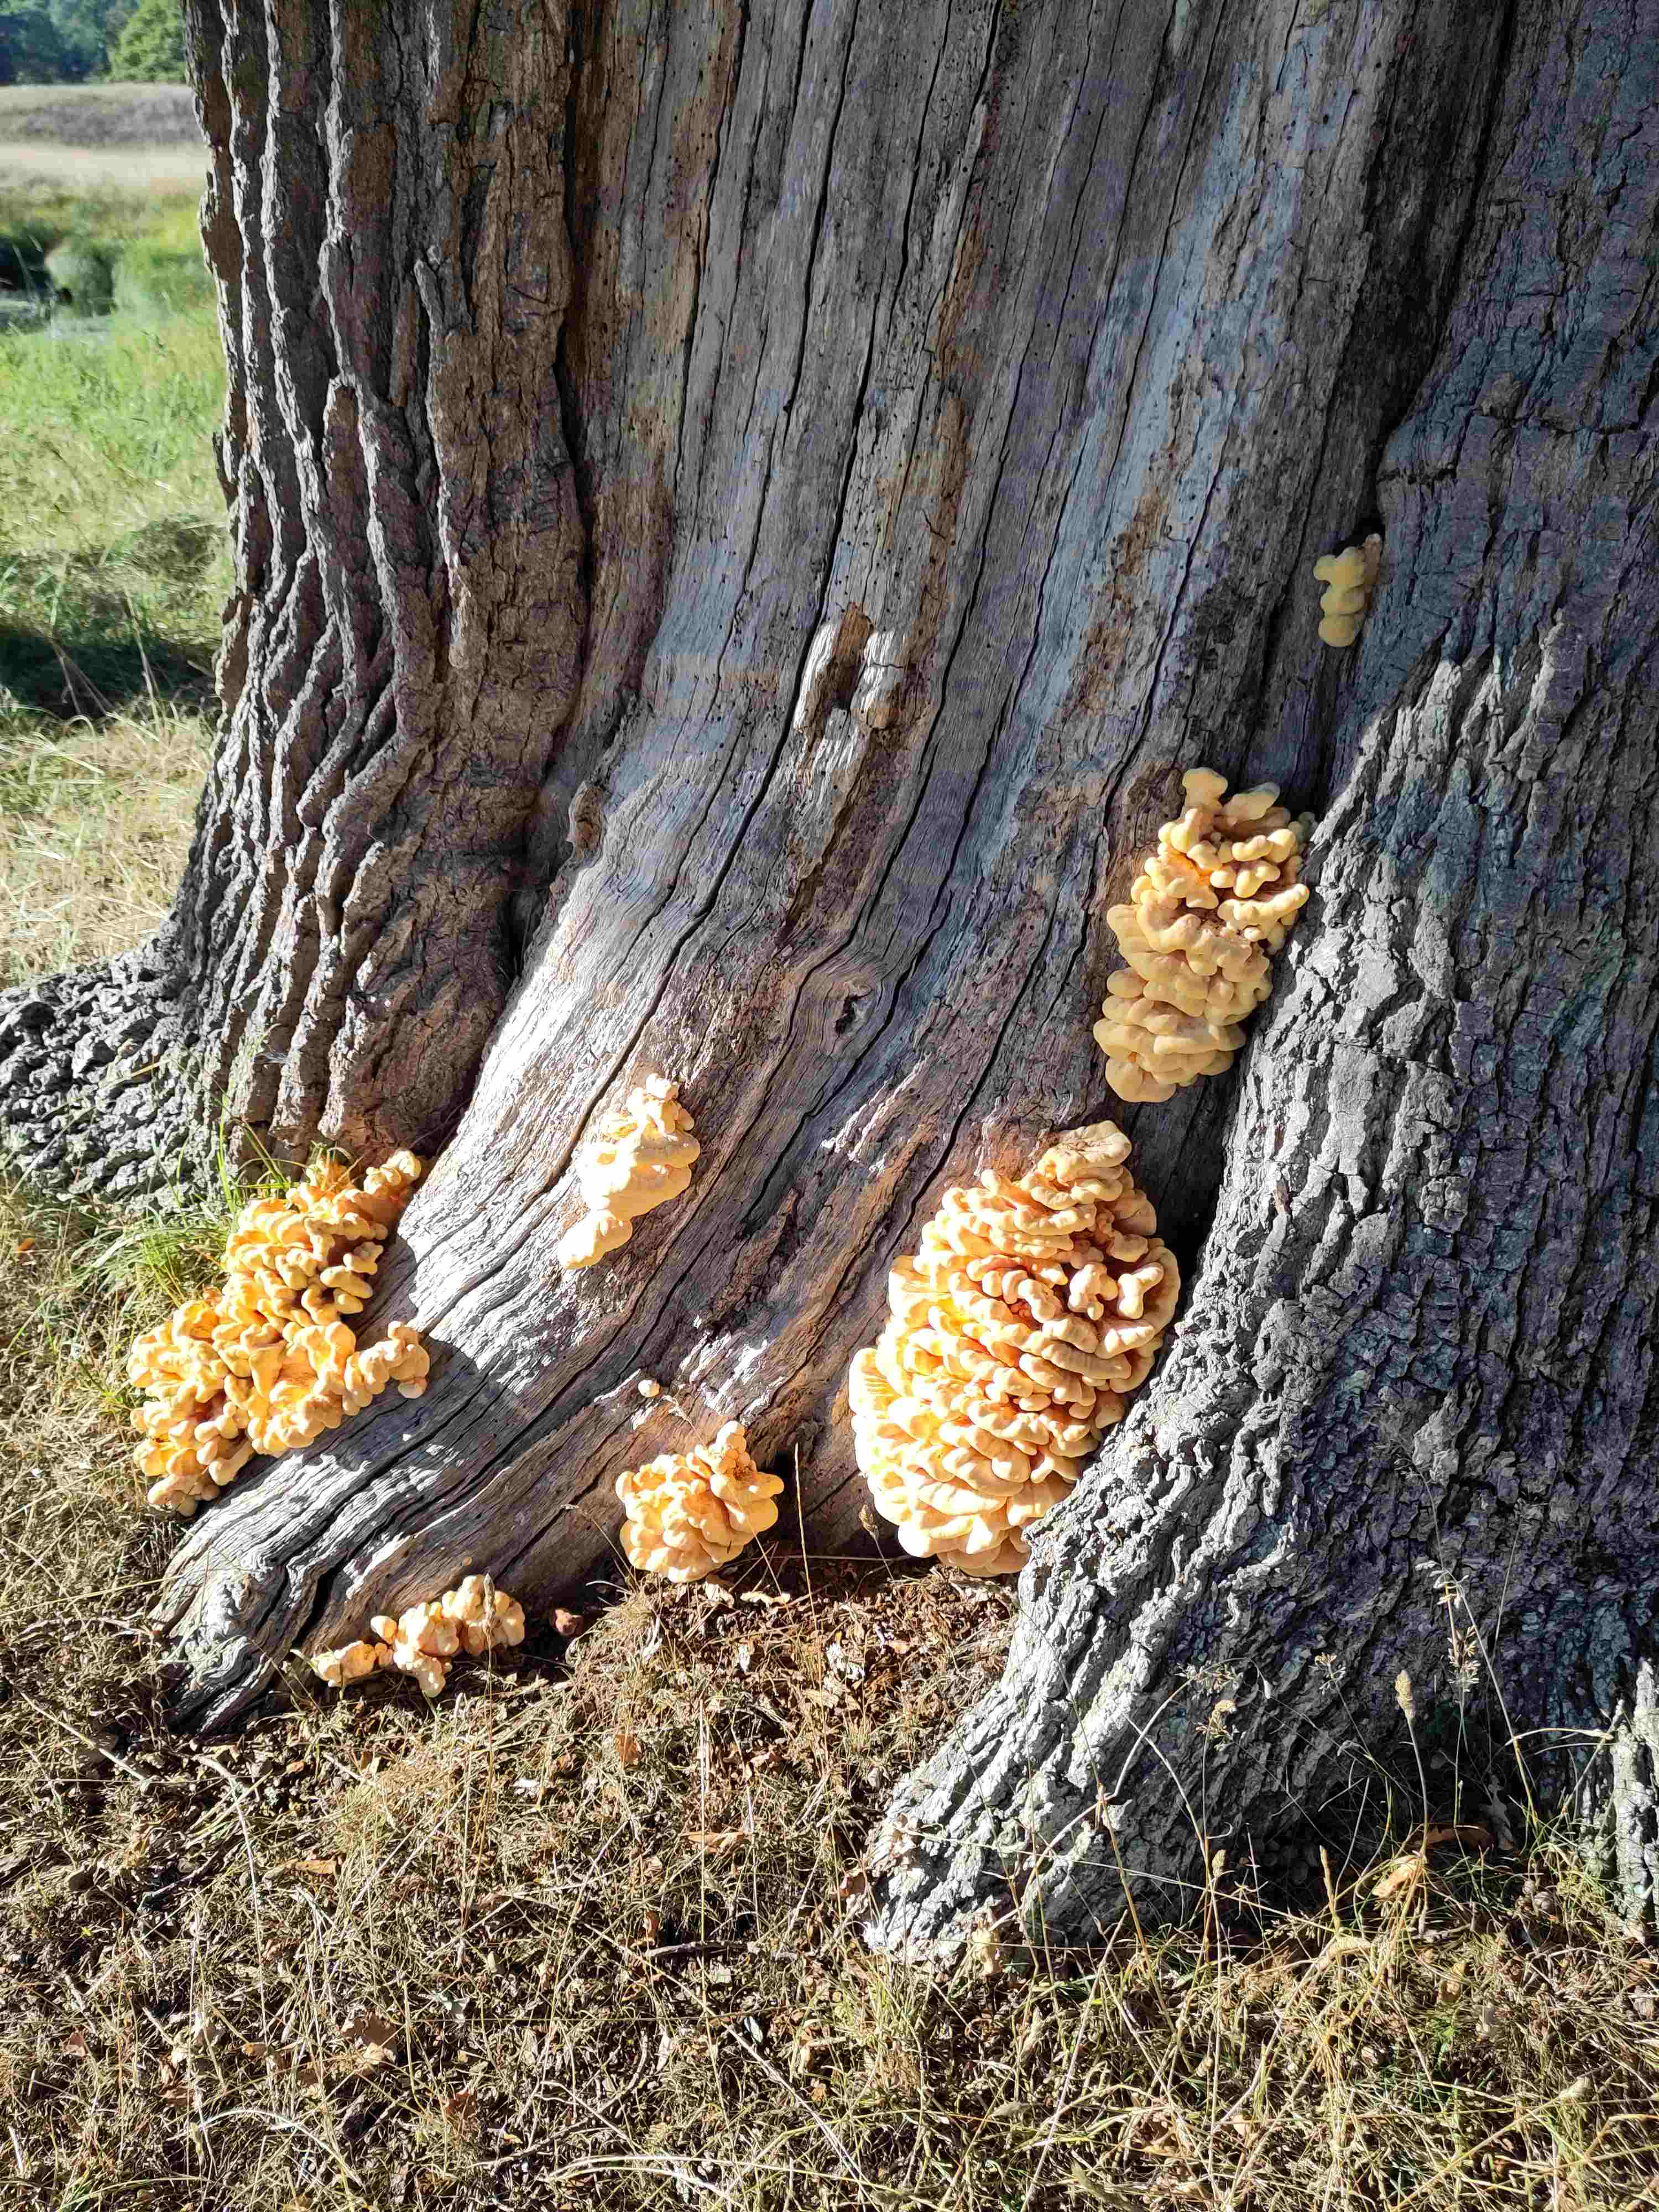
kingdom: Fungi
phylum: Basidiomycota
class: Agaricomycetes
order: Polyporales
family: Laetiporaceae
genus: Laetiporus
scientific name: Laetiporus sulphureus
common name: svovlporesvamp
